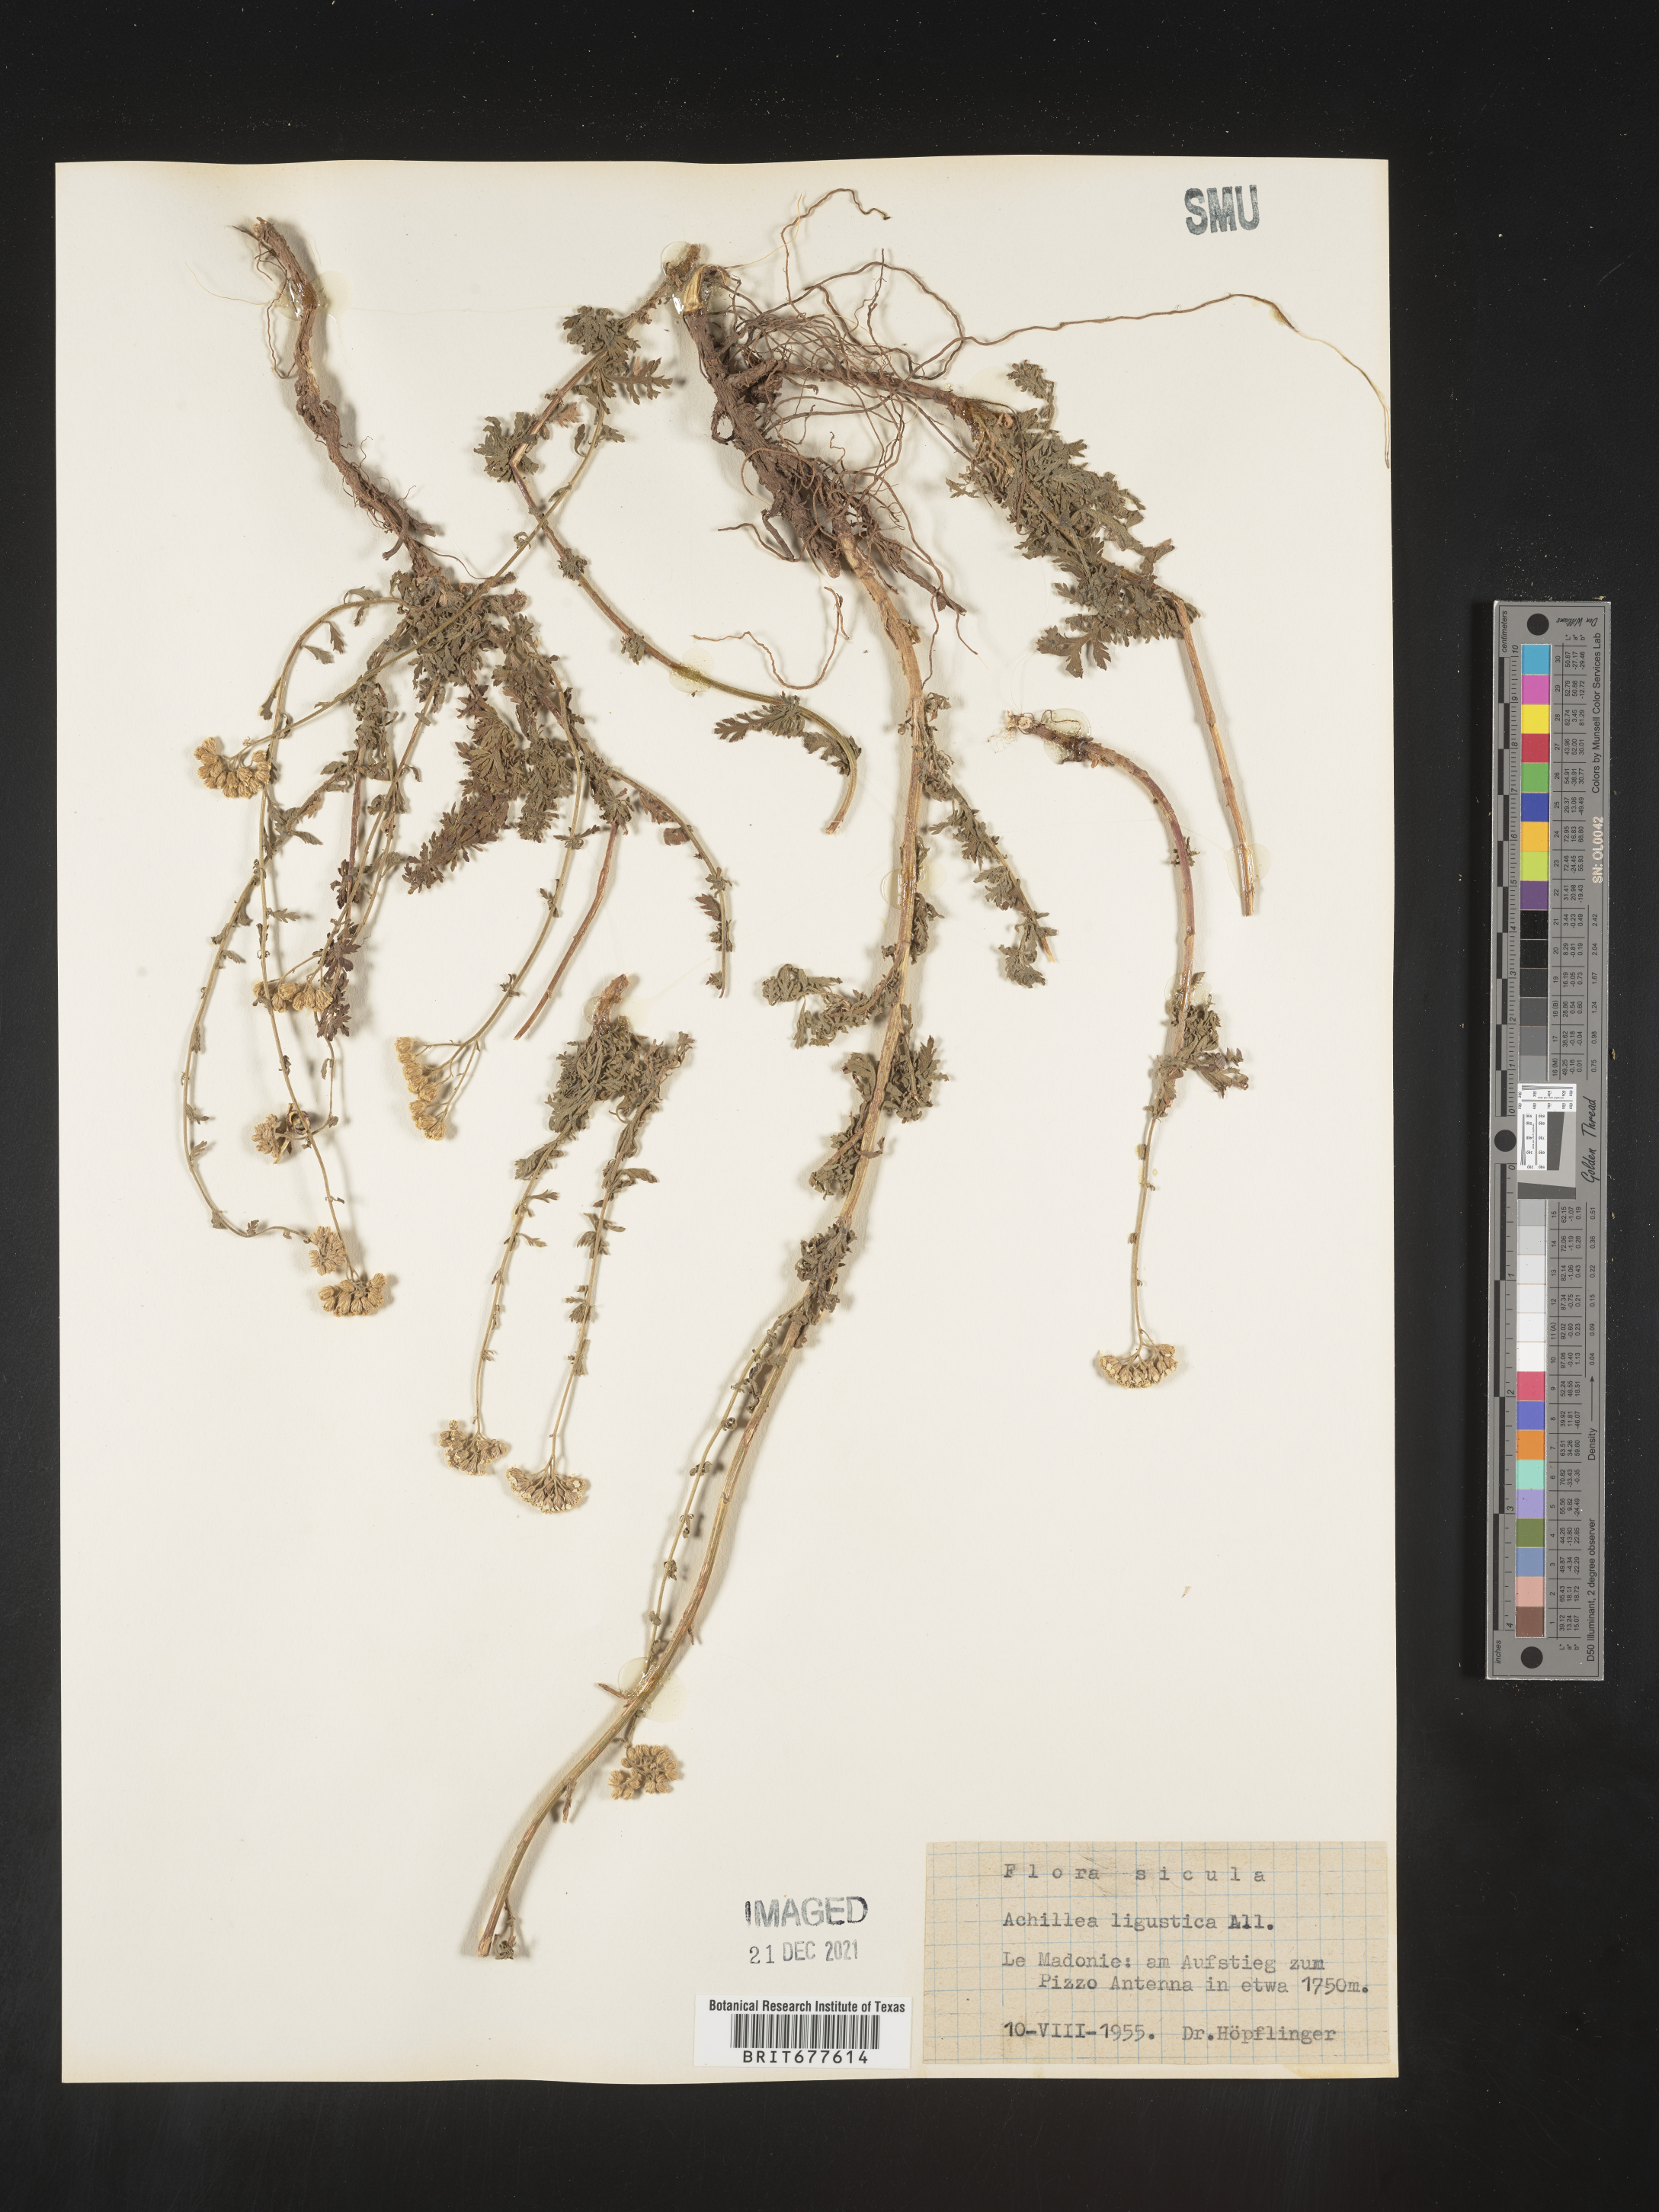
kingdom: Plantae
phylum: Tracheophyta
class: Magnoliopsida
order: Asterales
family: Asteraceae
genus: Achillea
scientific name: Achillea millefolium
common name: Yarrow
